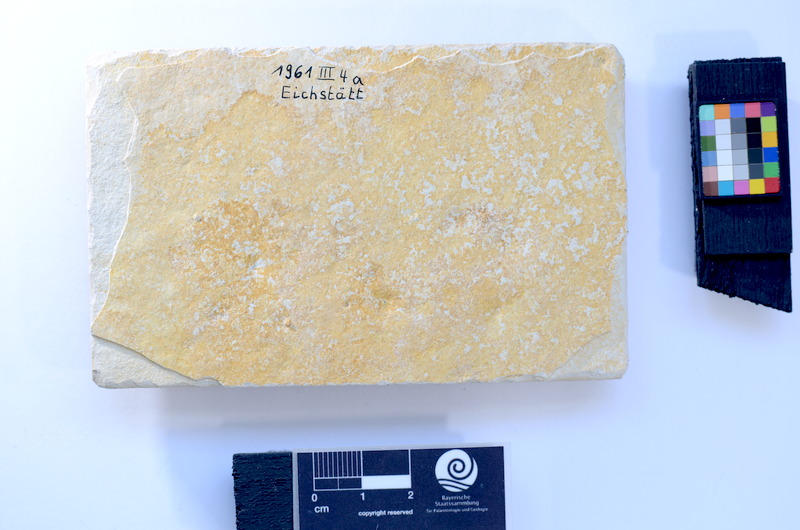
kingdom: Animalia
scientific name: Animalia
